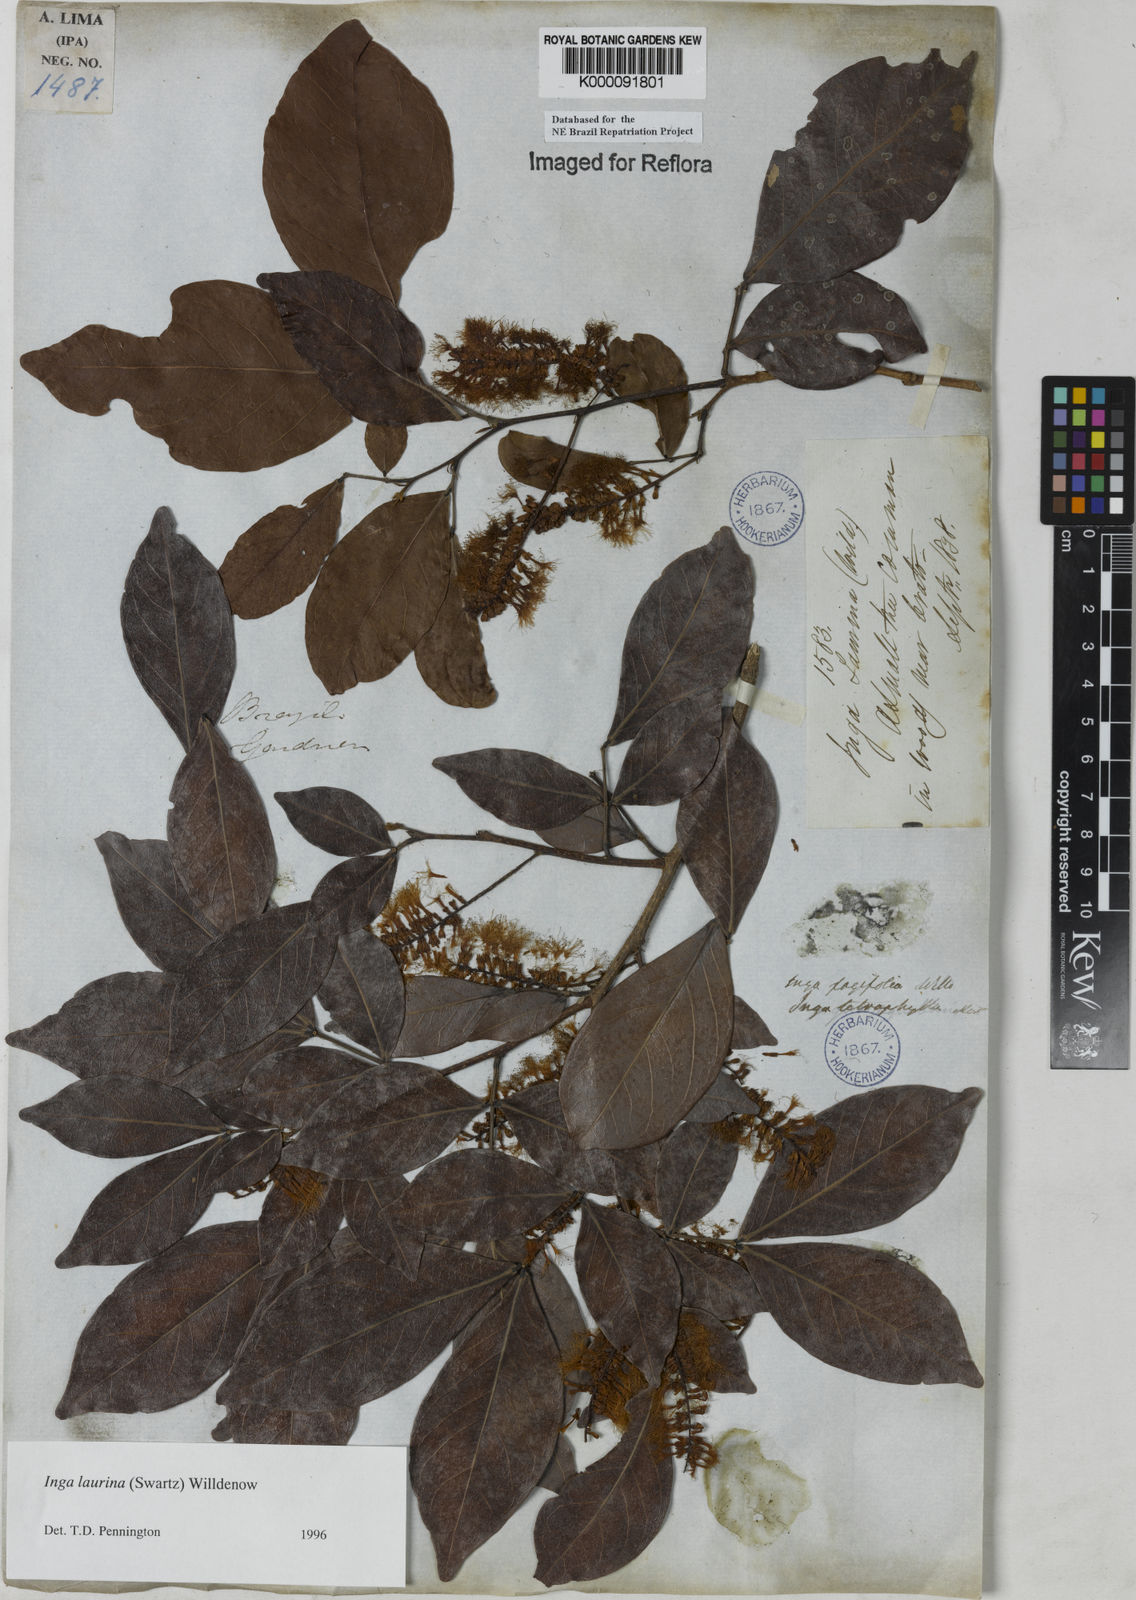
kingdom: Plantae
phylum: Tracheophyta
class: Magnoliopsida
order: Fabales
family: Fabaceae
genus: Inga
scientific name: Inga laurina
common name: Red wood
